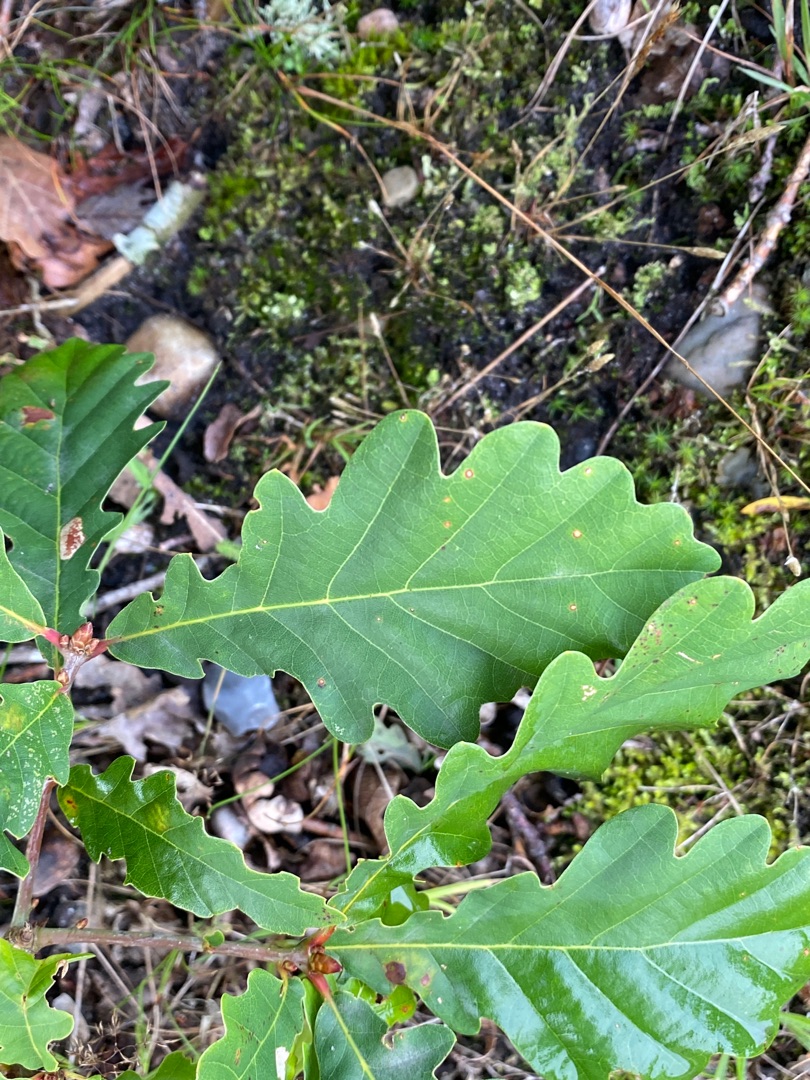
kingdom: Plantae
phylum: Tracheophyta
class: Magnoliopsida
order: Fagales
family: Fagaceae
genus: Quercus
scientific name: Quercus robur
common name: Stilk-eg/almindelig eg
